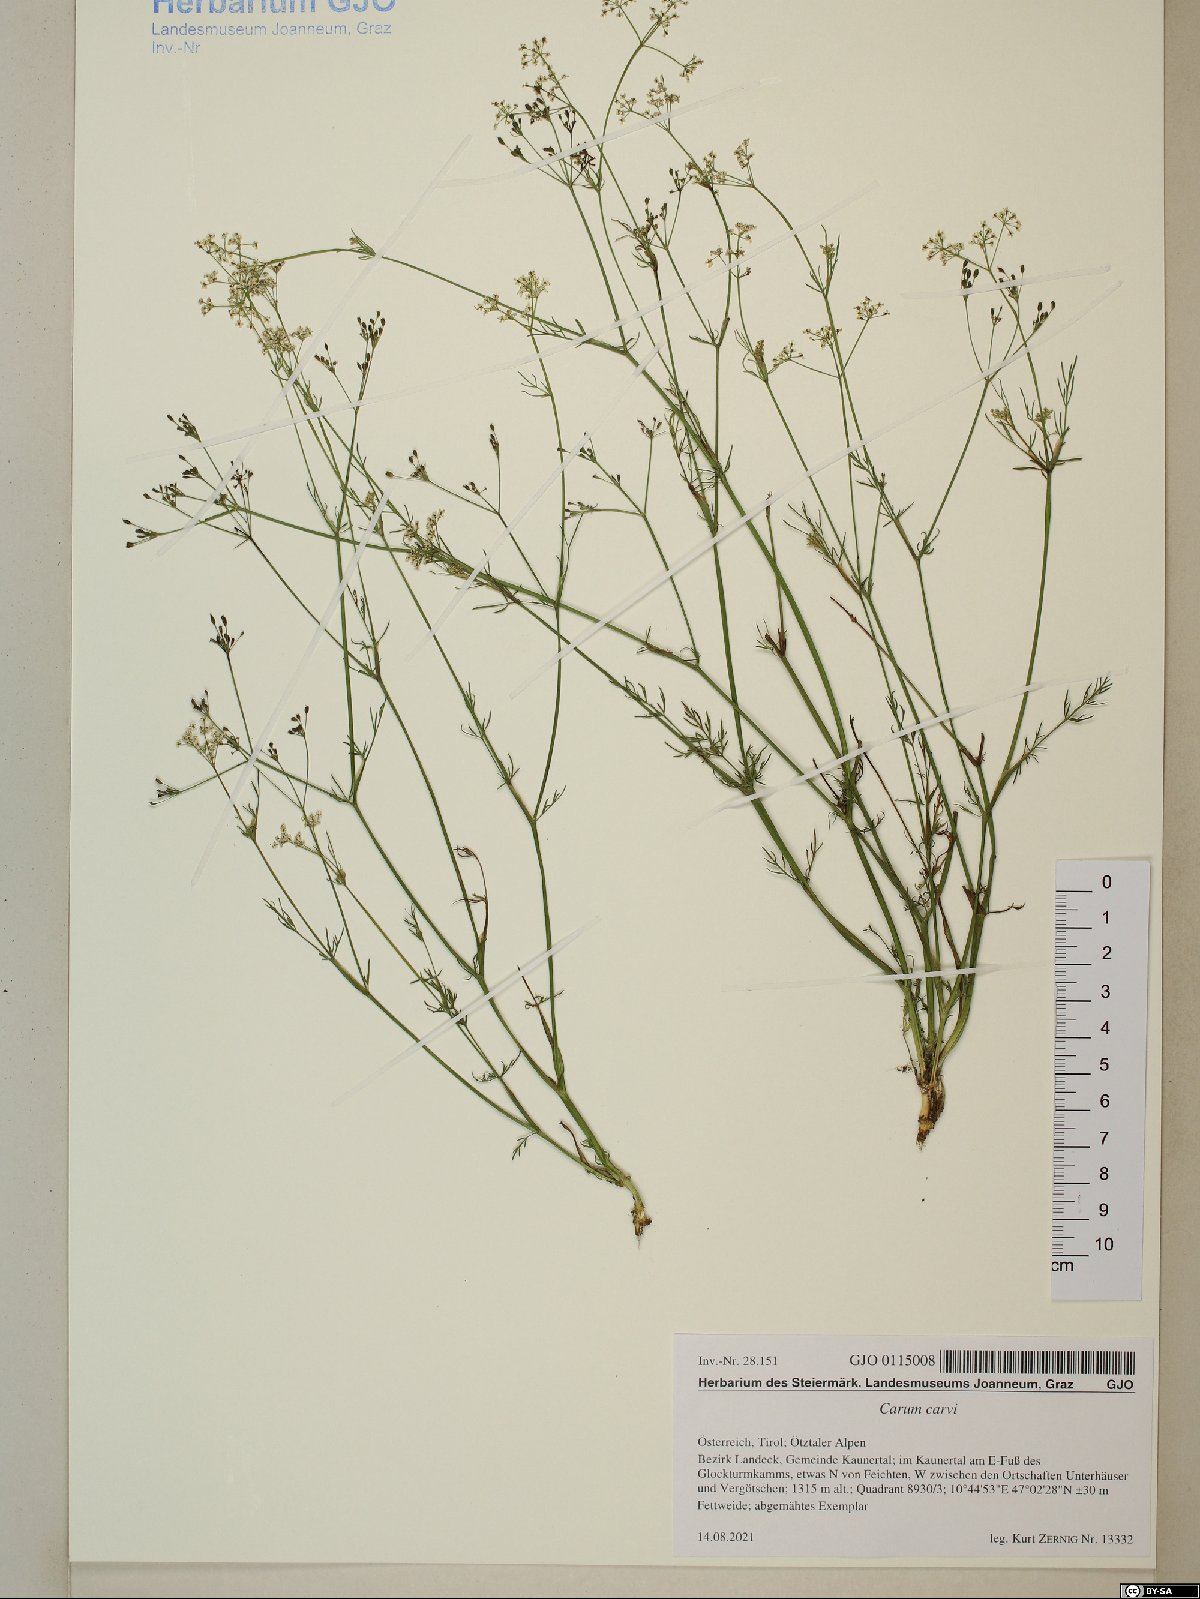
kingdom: Plantae
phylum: Tracheophyta
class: Magnoliopsida
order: Apiales
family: Apiaceae
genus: Carum
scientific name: Carum carvi
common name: Caraway
